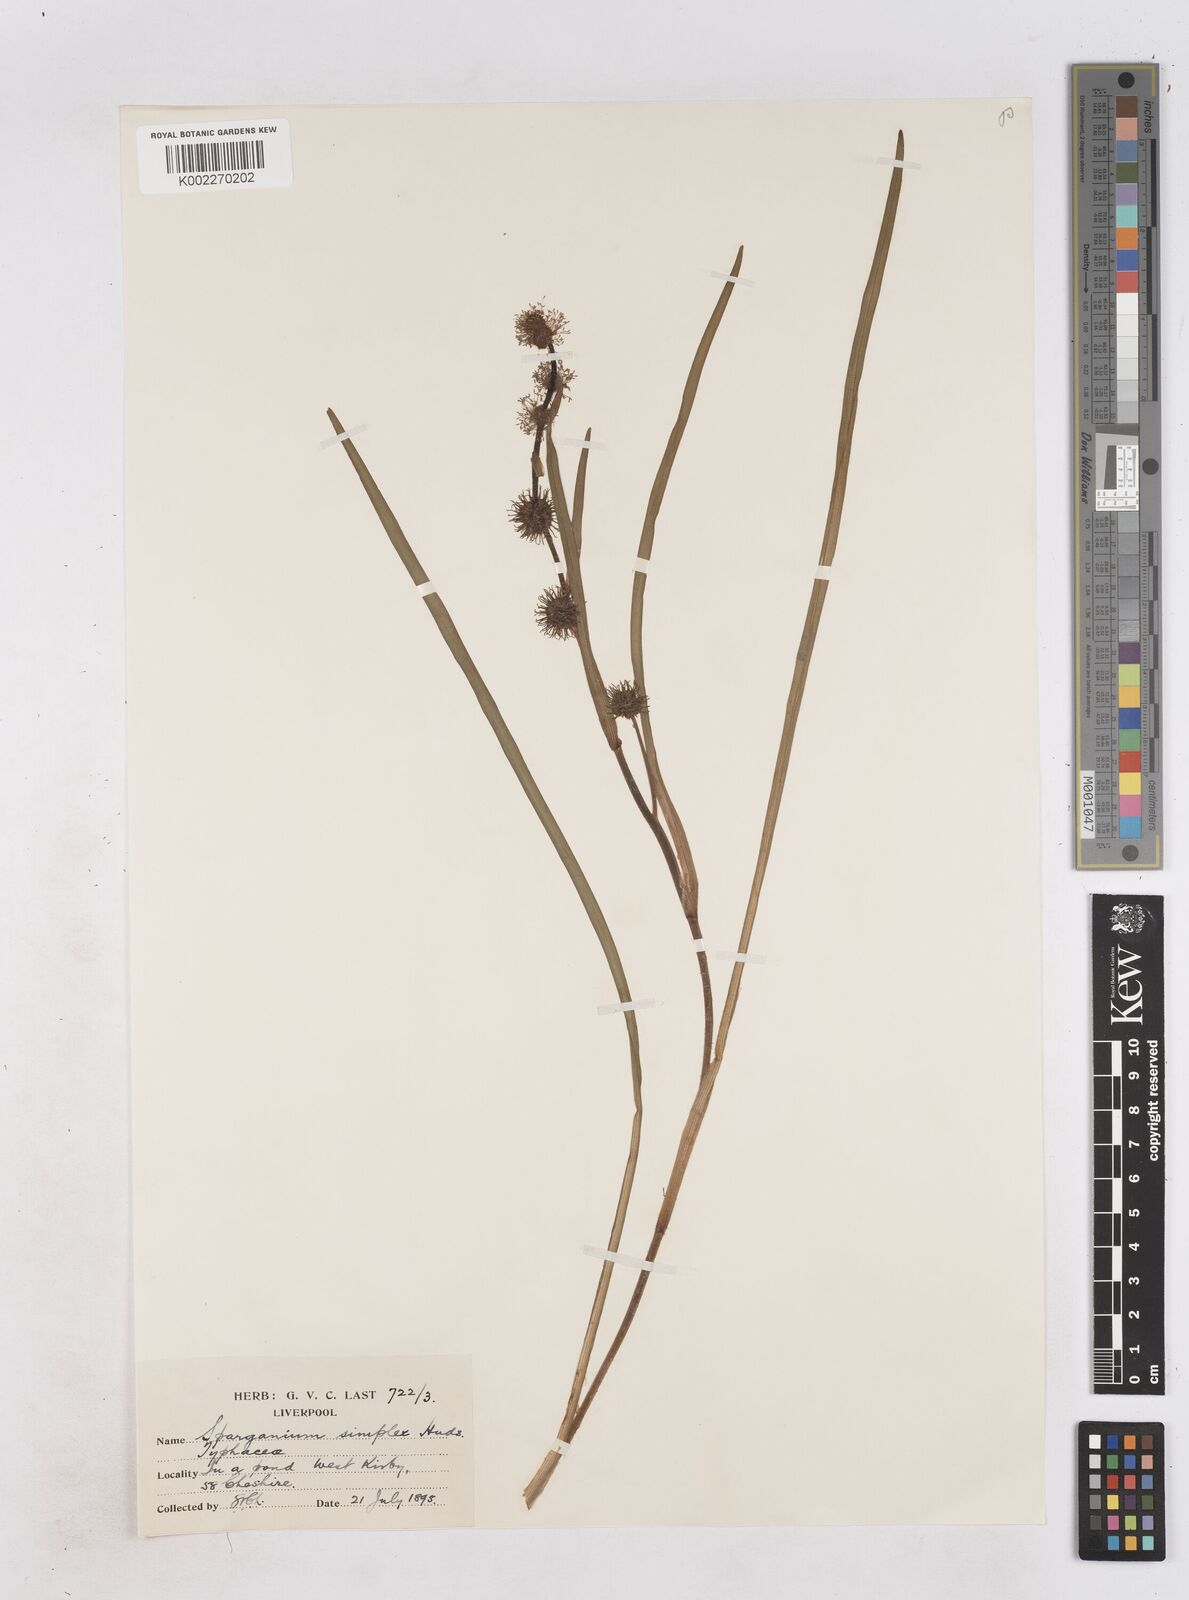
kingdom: Plantae
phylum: Tracheophyta
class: Liliopsida
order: Poales
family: Typhaceae
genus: Sparganium
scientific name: Sparganium emersum
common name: Unbranched bur-reed
